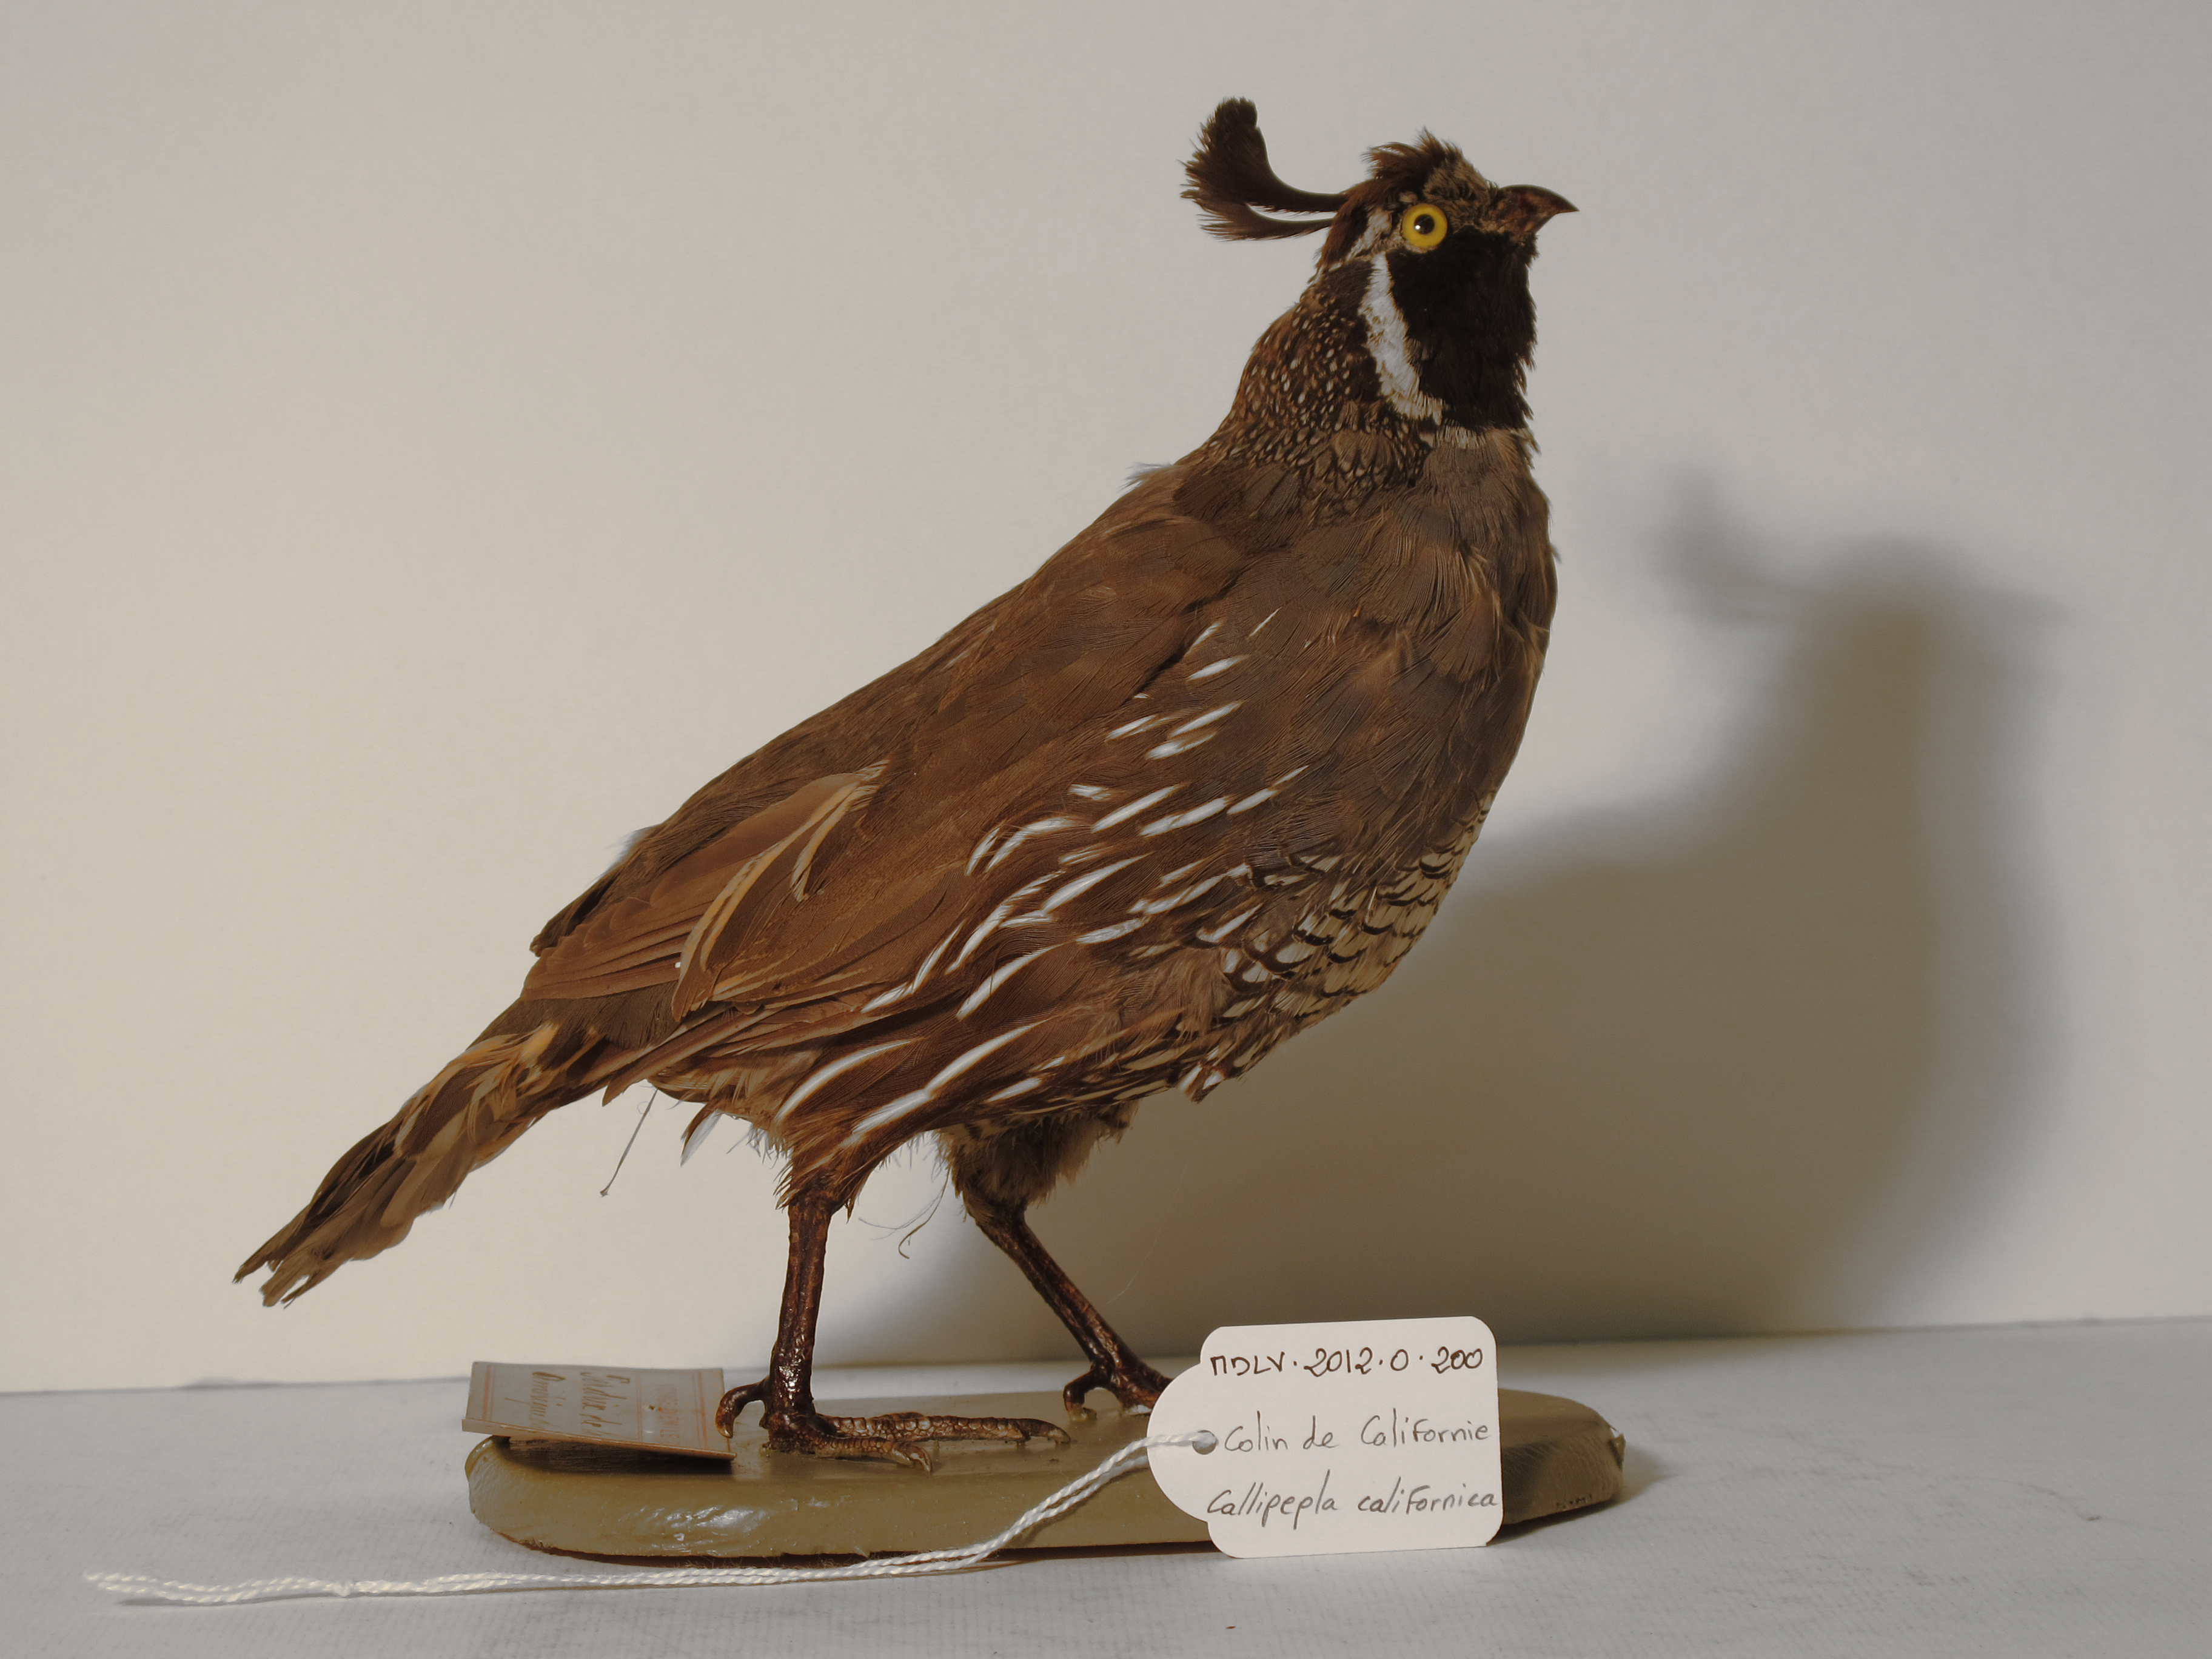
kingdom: Animalia
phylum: Chordata
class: Aves
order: Galliformes
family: Odontophoridae
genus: Callipepla
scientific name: Callipepla californica
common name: California Quail
